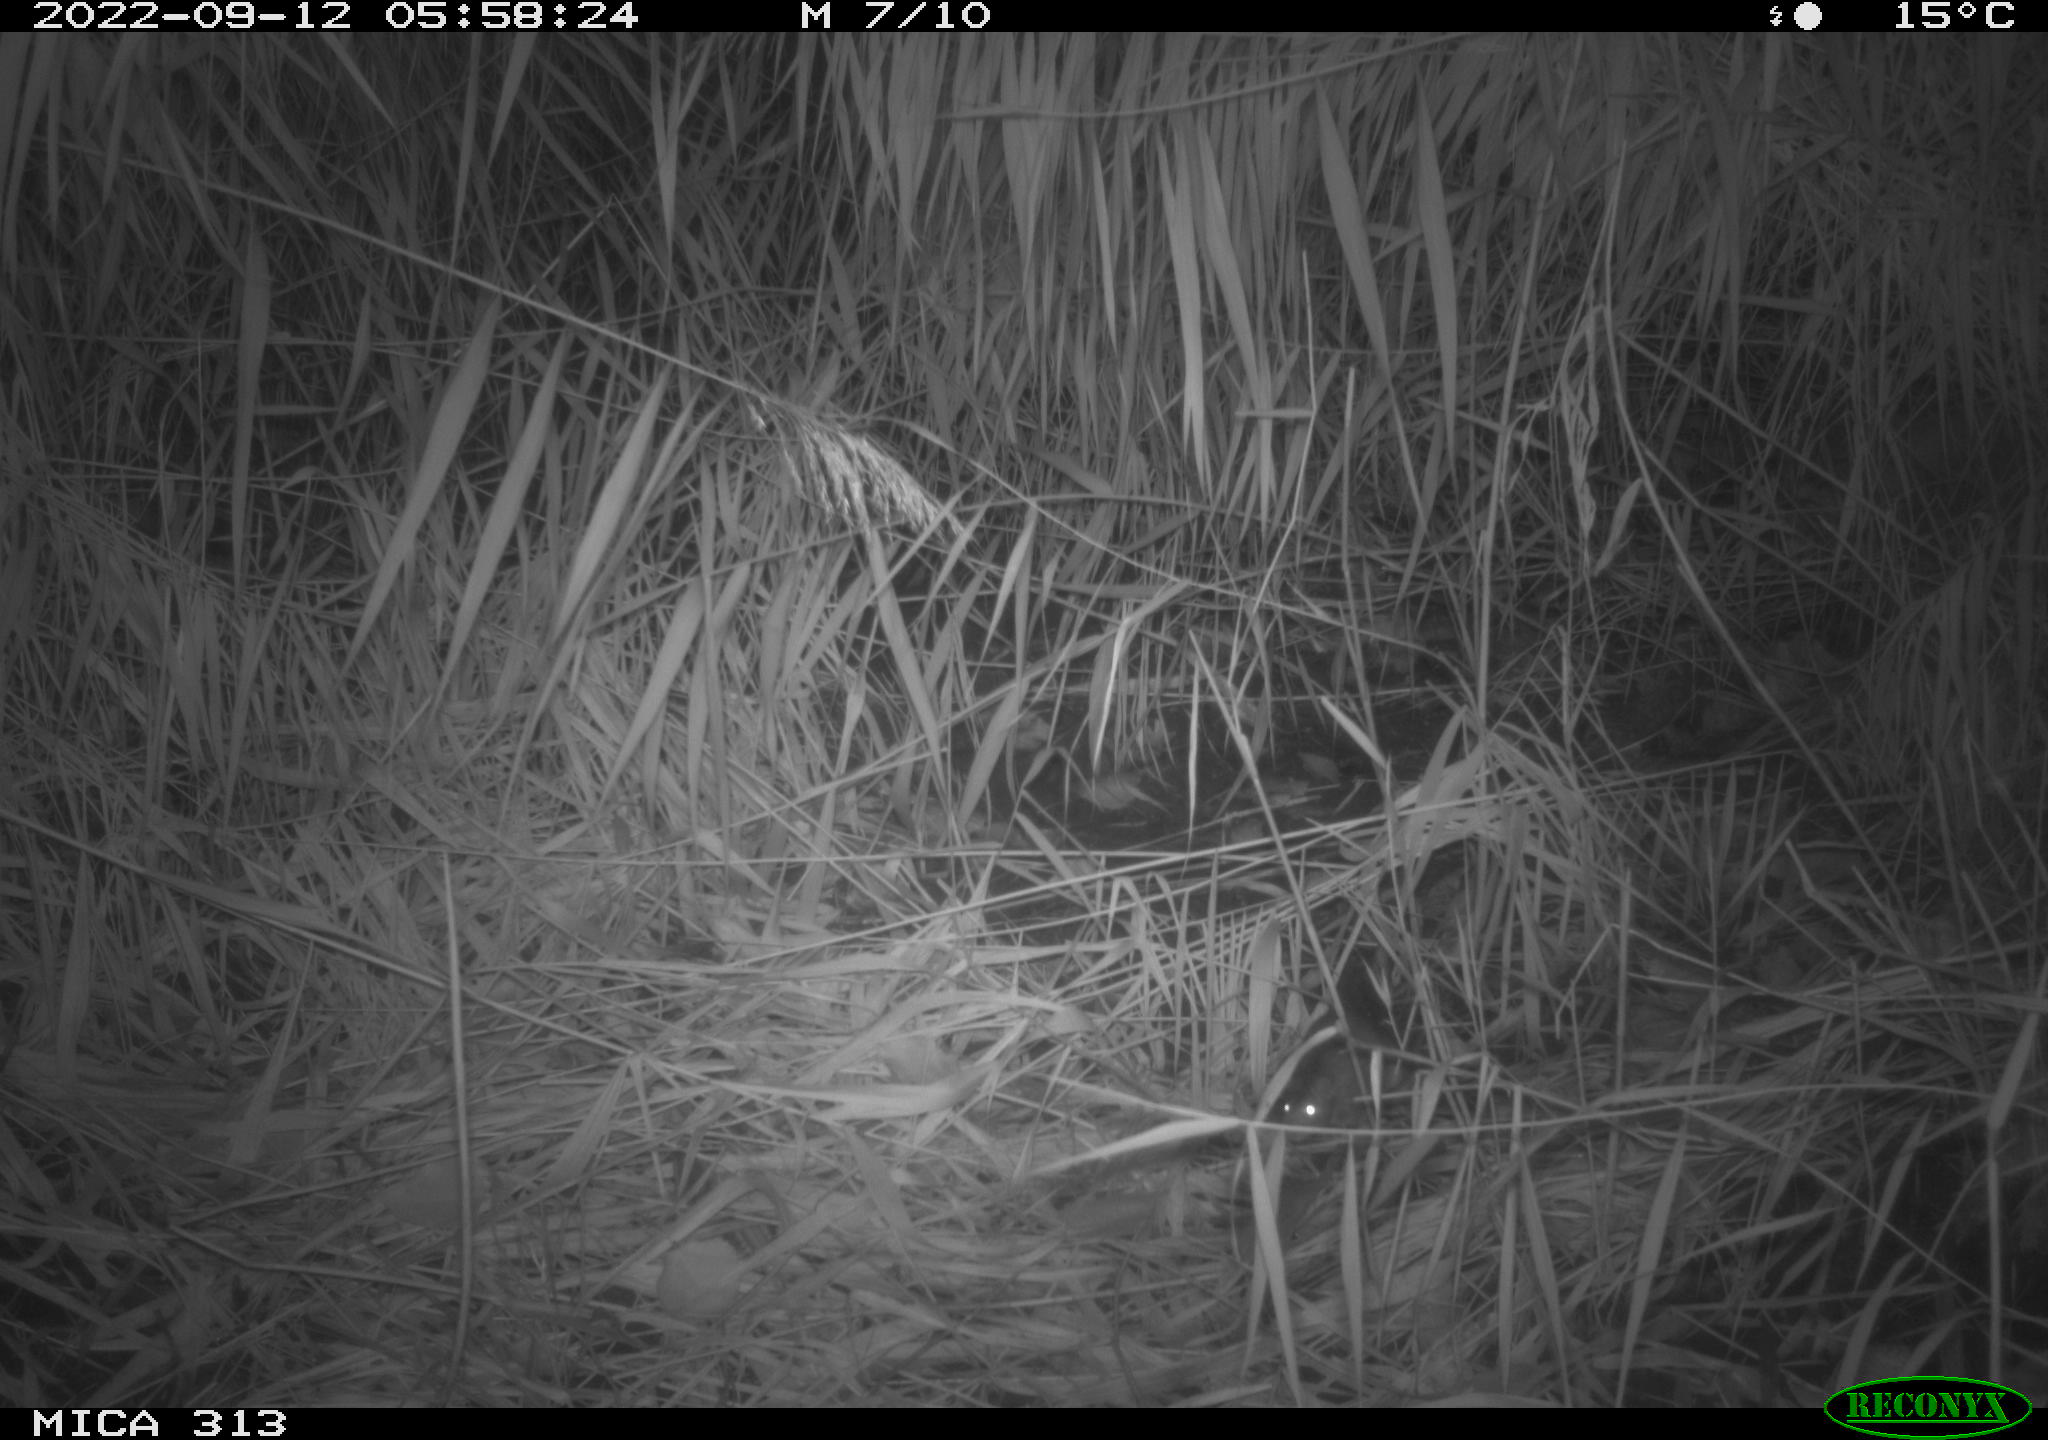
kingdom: Animalia
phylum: Chordata
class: Mammalia
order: Rodentia
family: Muridae
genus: Rattus
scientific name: Rattus norvegicus
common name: Brown rat
